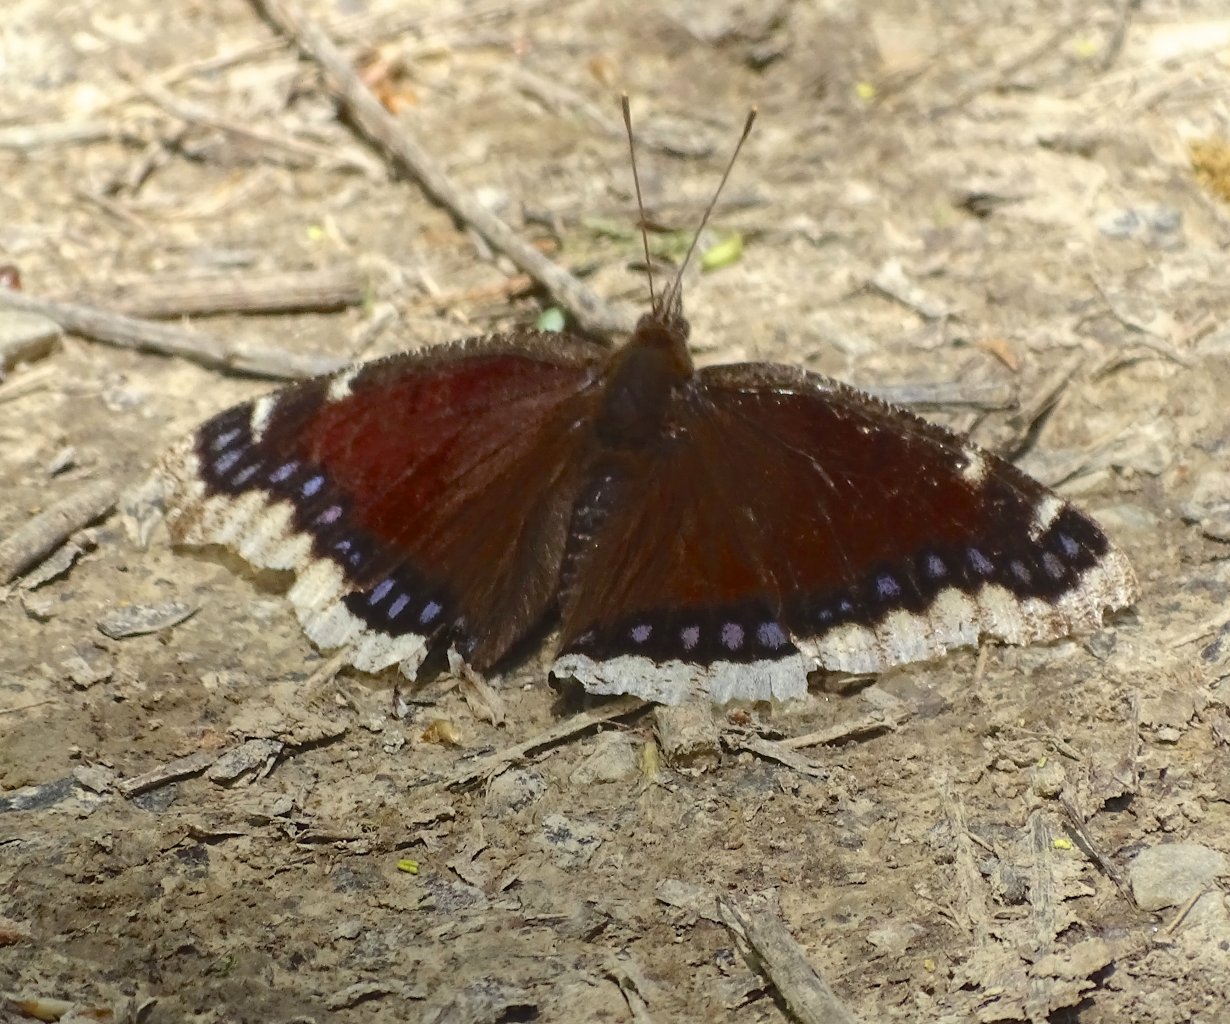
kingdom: Animalia
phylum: Arthropoda
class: Insecta
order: Lepidoptera
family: Nymphalidae
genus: Nymphalis
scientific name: Nymphalis antiopa
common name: Mourning Cloak
